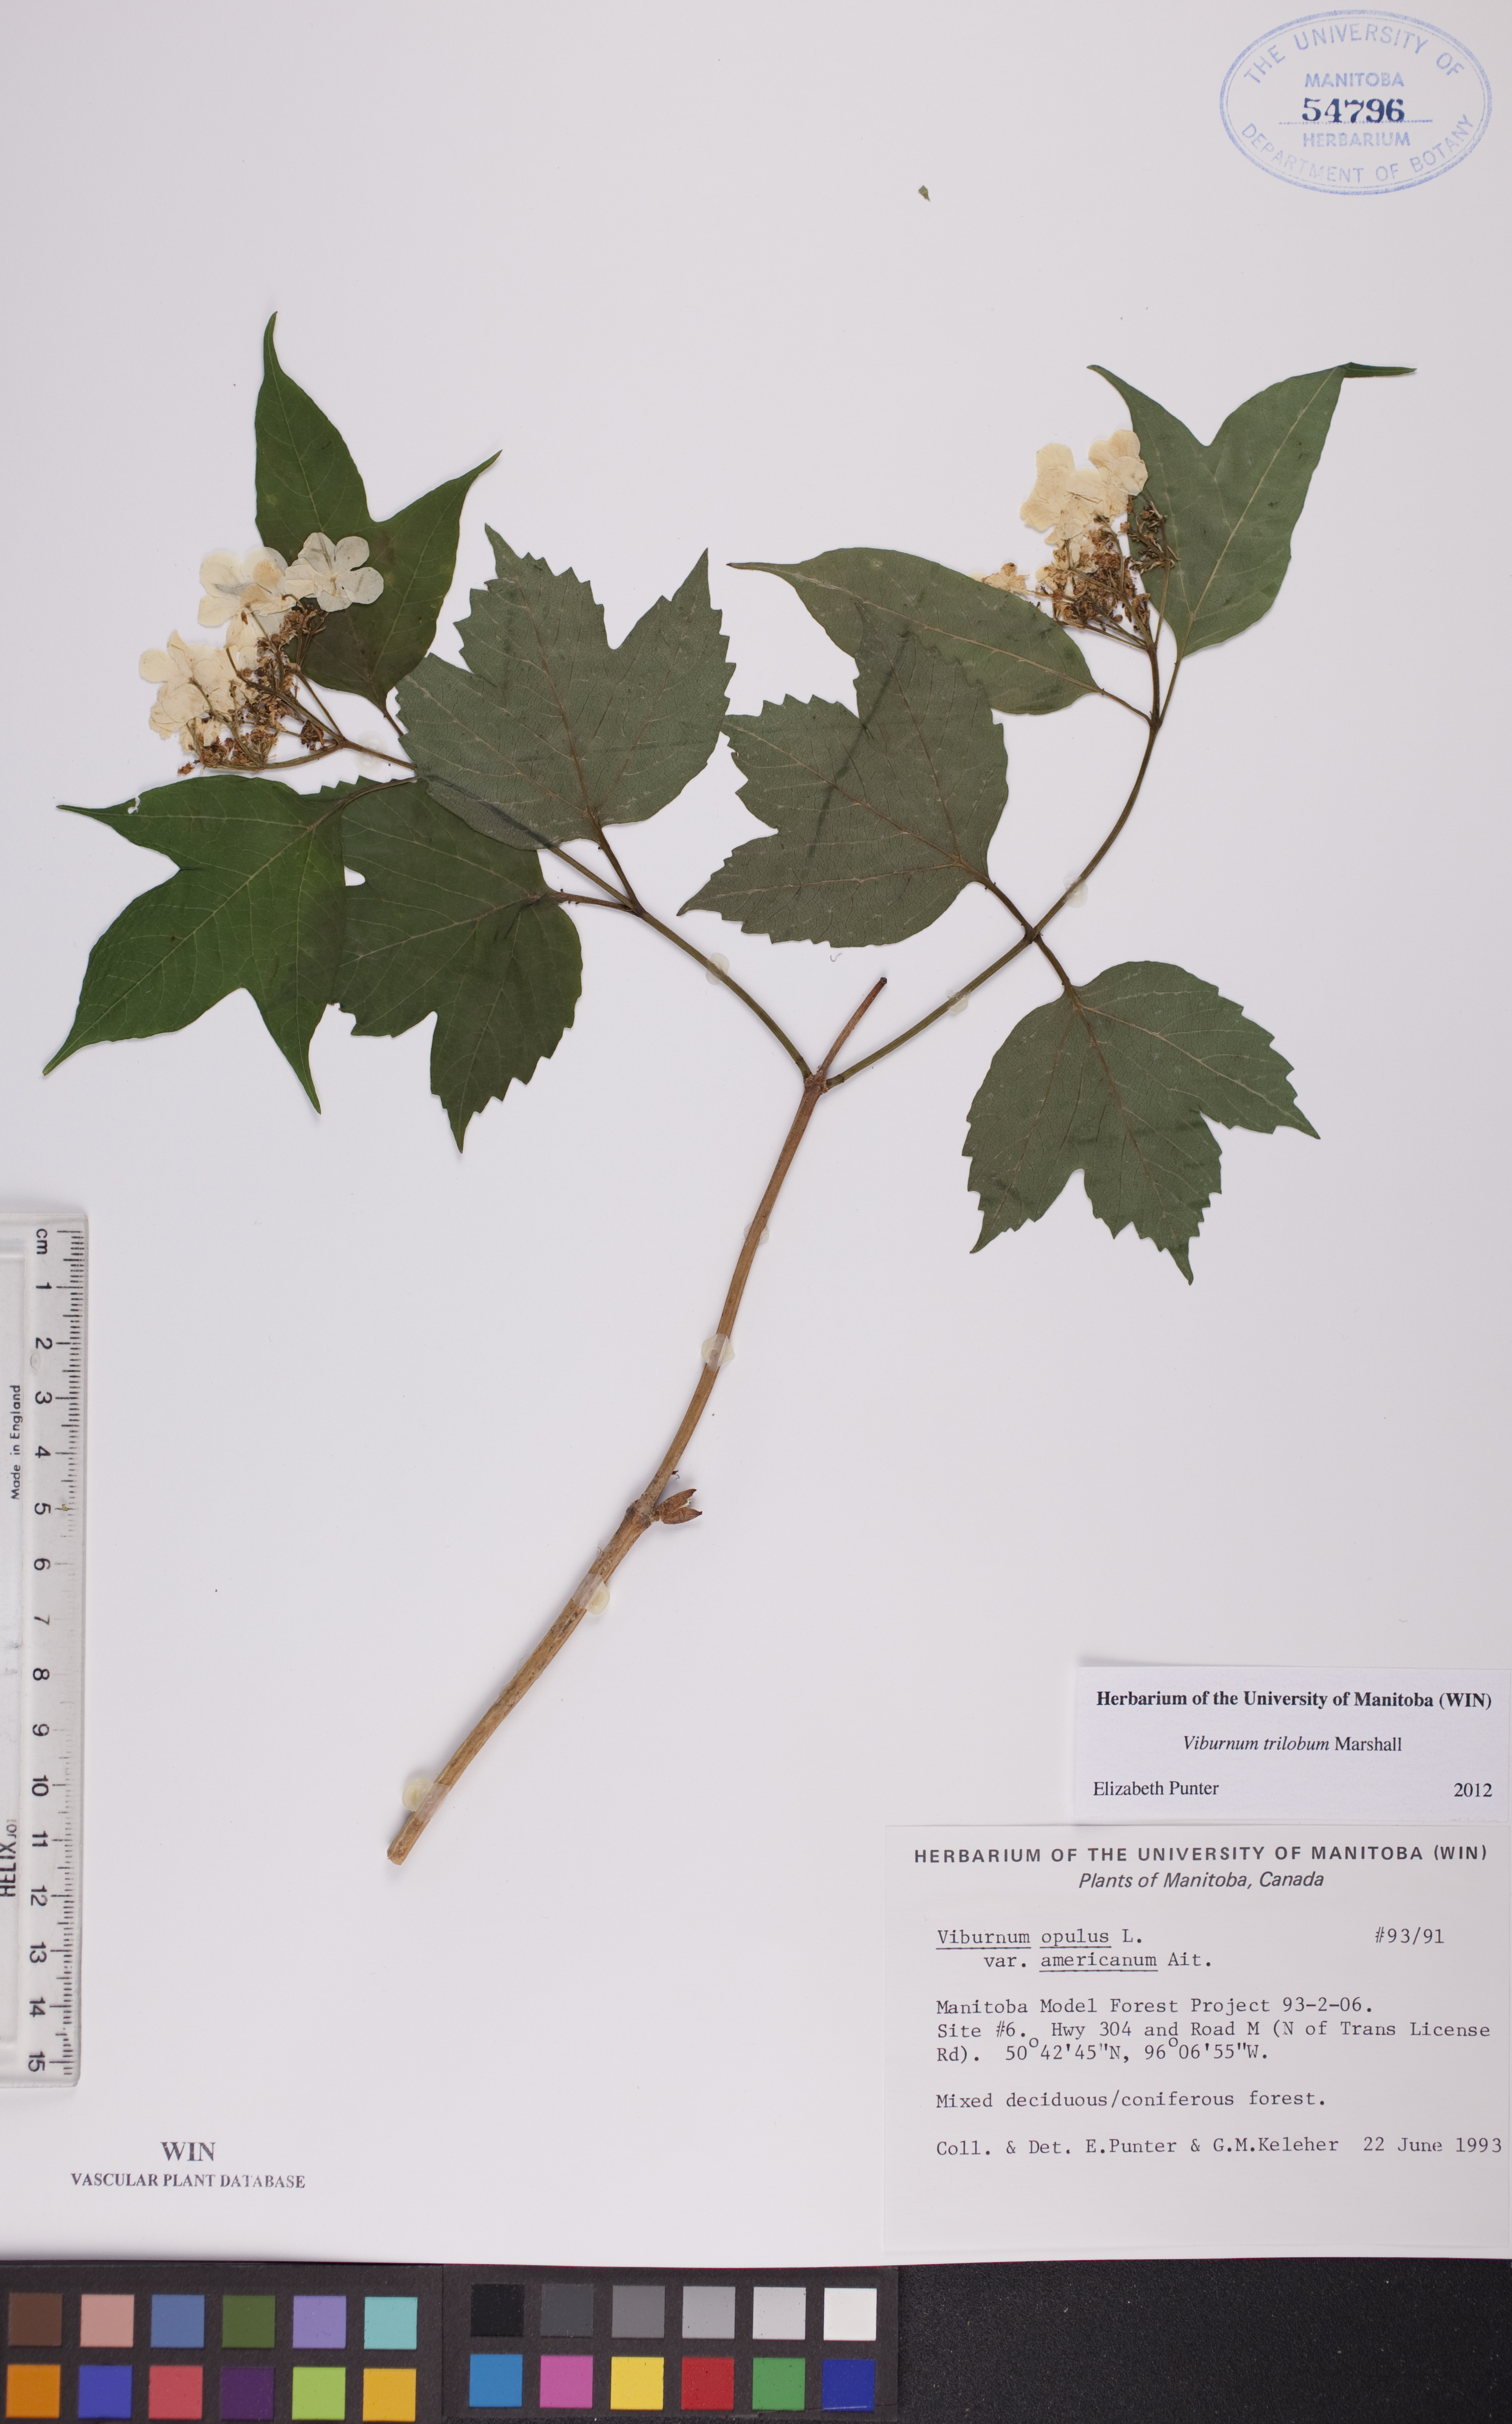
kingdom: Plantae
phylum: Tracheophyta
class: Magnoliopsida
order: Dipsacales
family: Viburnaceae
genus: Viburnum
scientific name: Viburnum trilobum
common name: American cranberrybush
